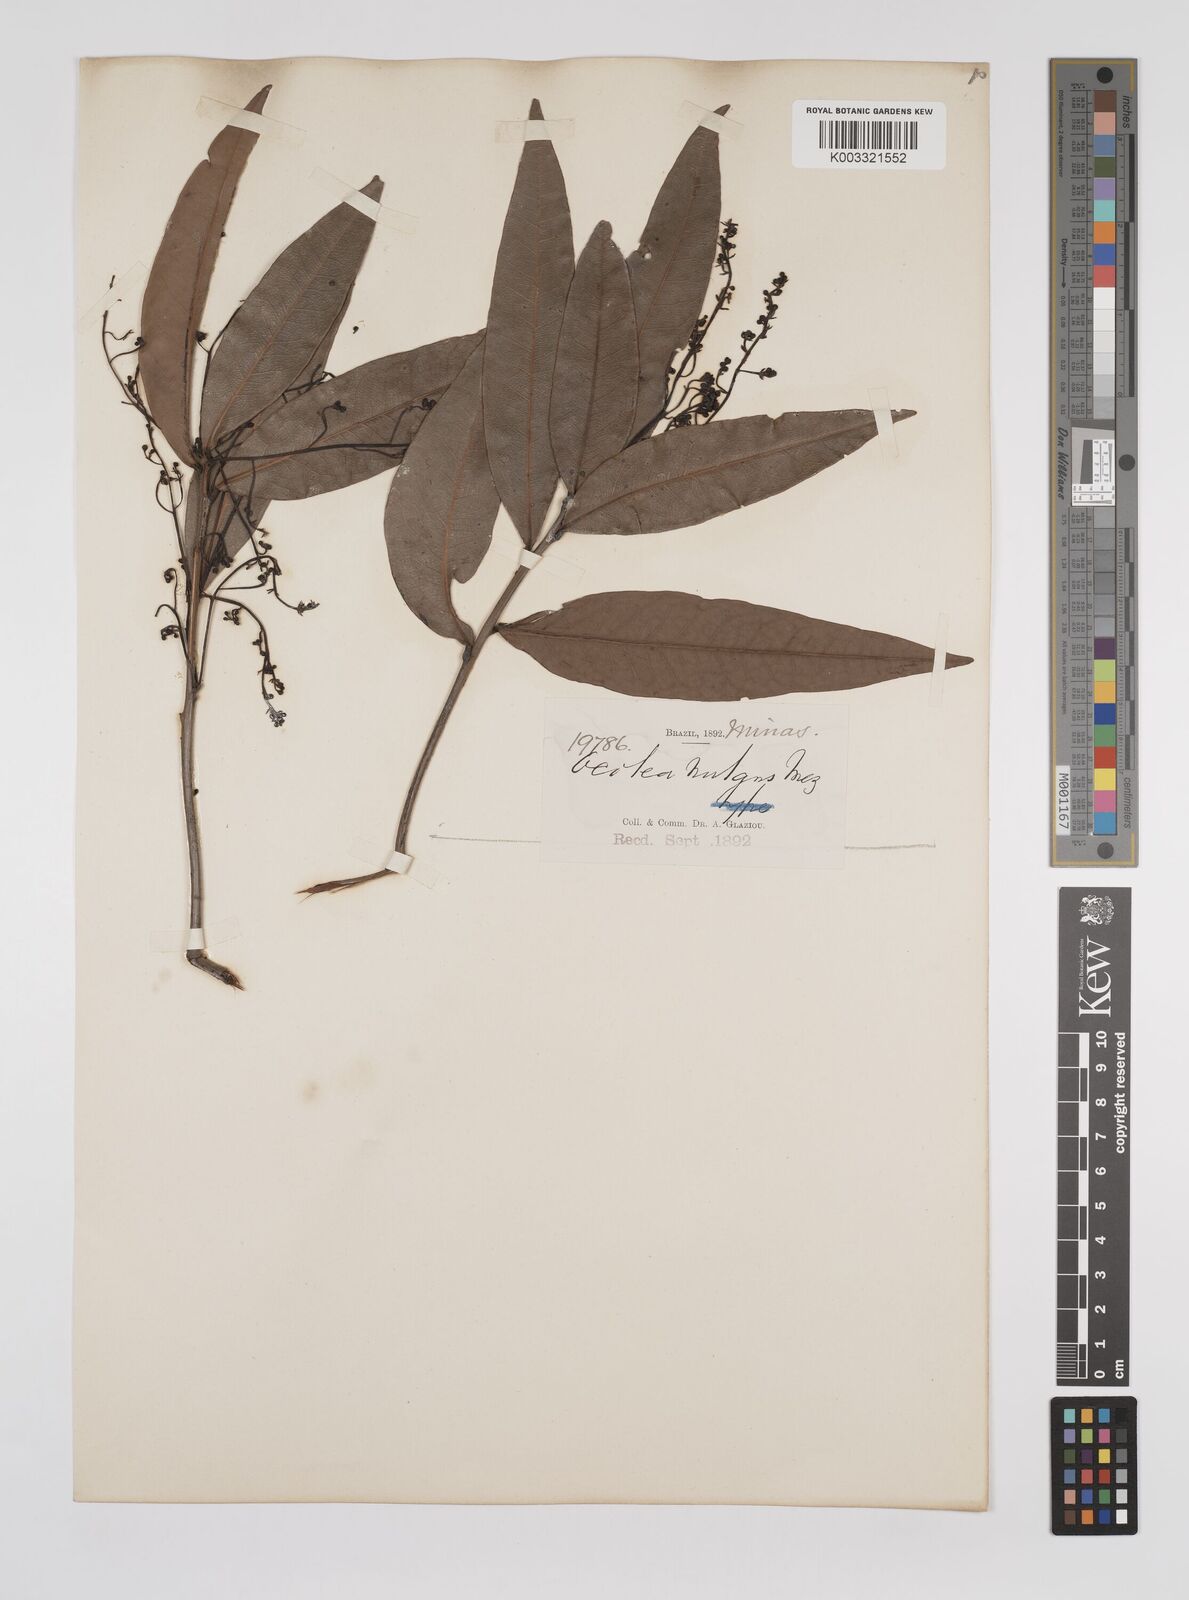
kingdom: Plantae
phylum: Tracheophyta
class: Magnoliopsida
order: Laurales
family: Lauraceae
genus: Mespilodaphne
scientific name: Mespilodaphne nutans
